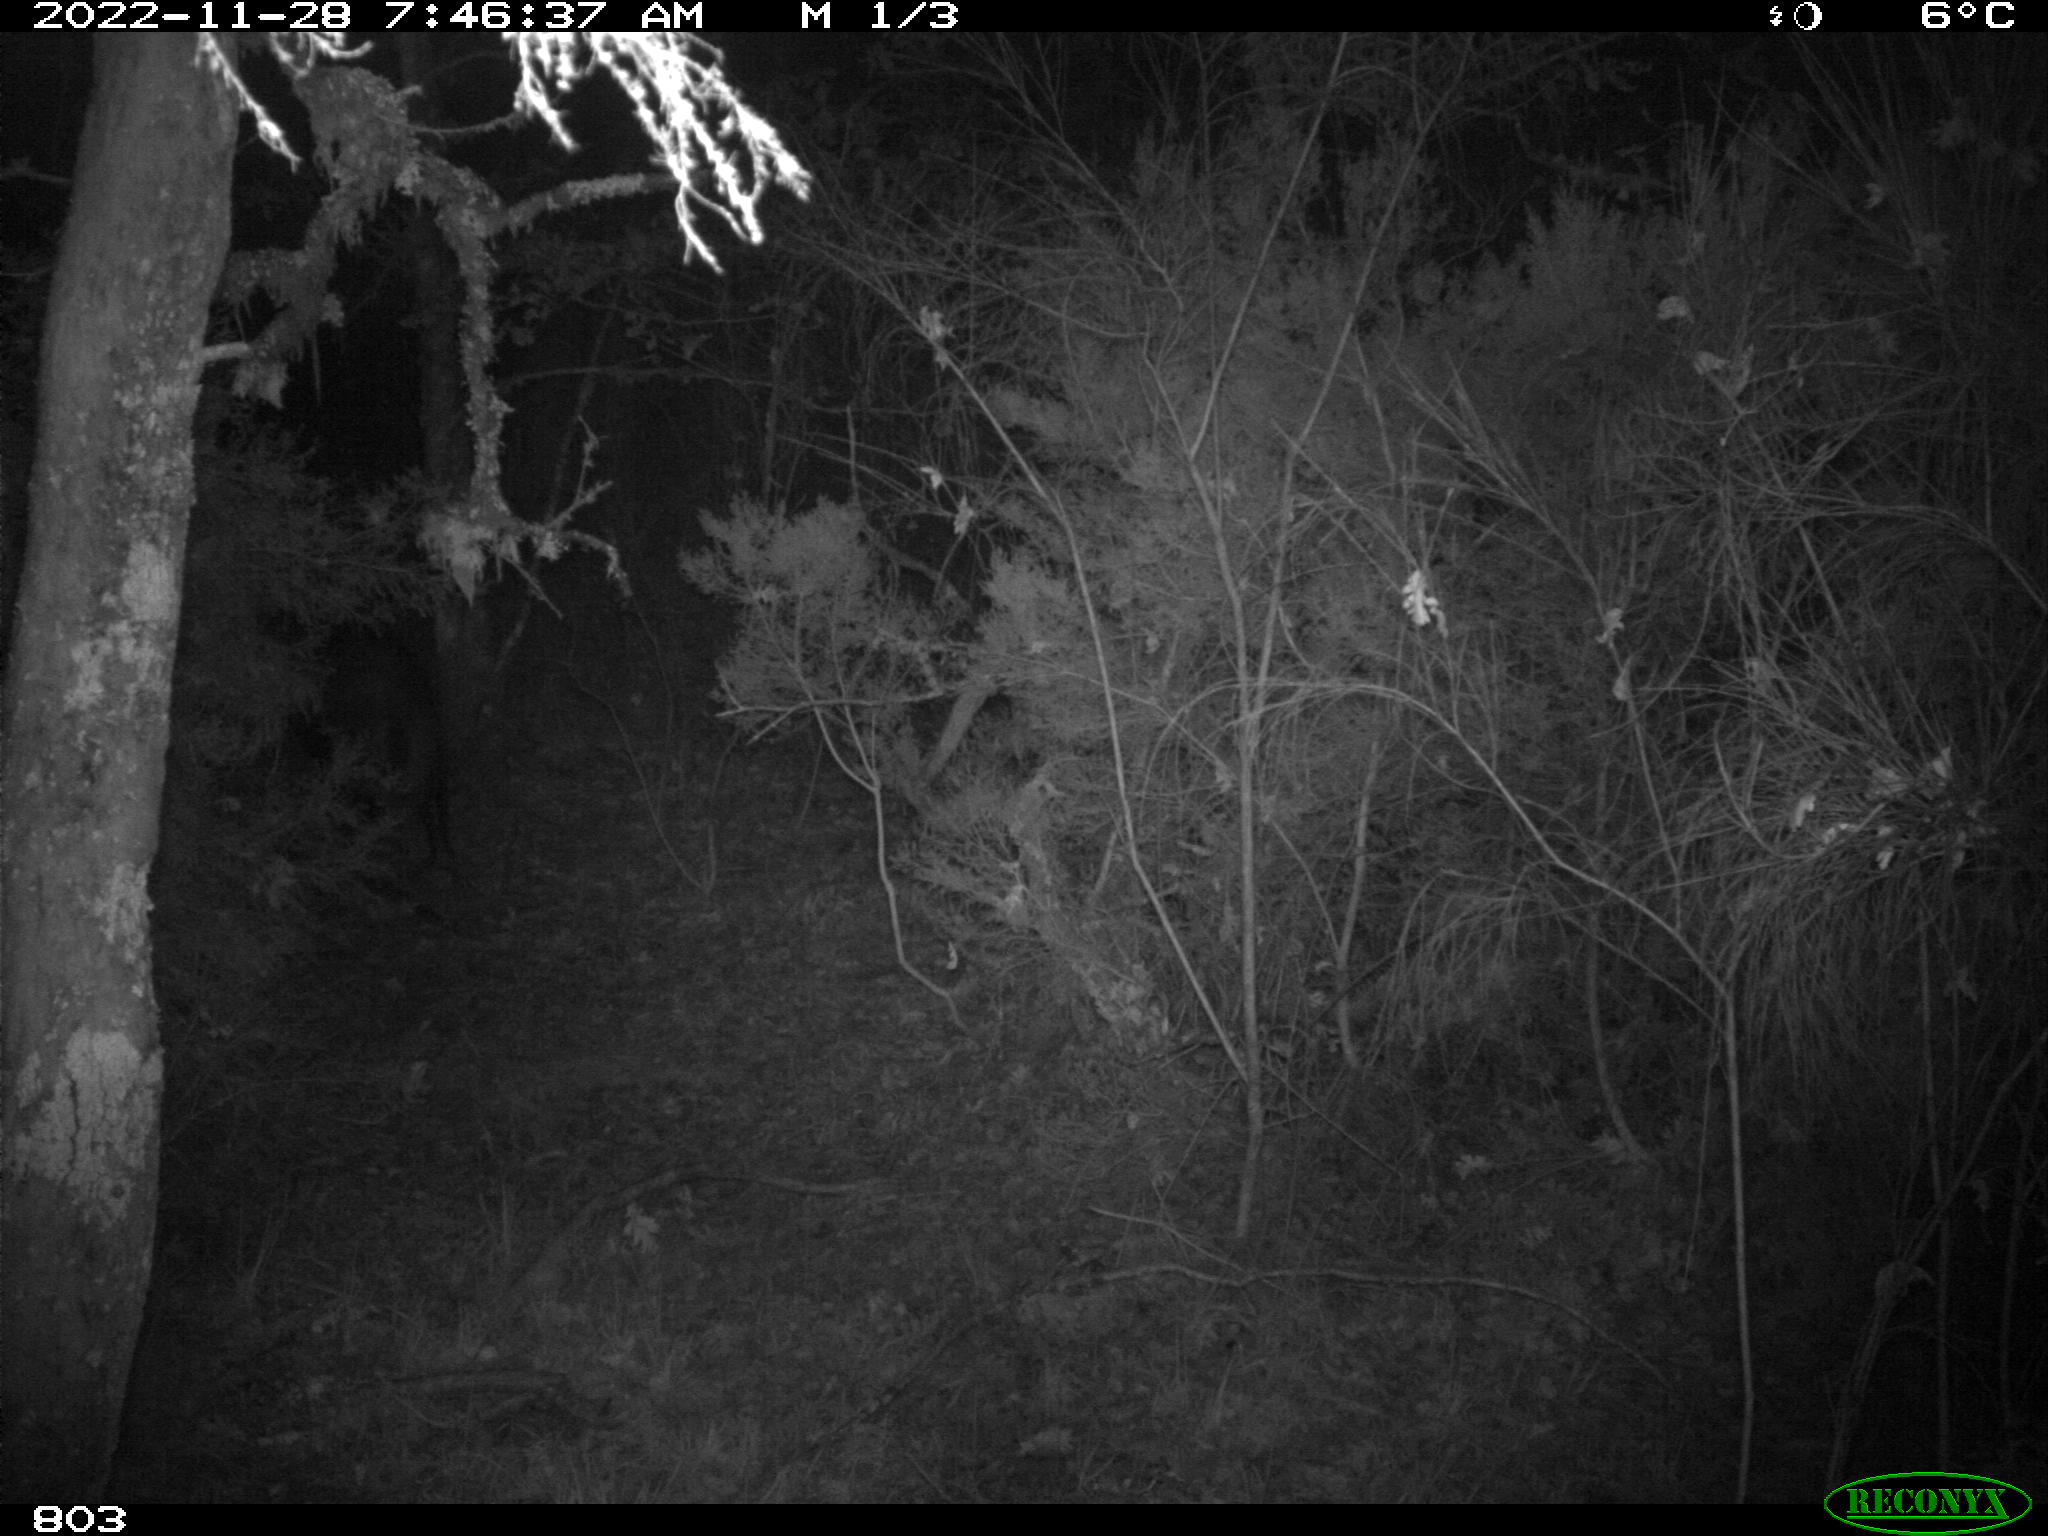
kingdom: Animalia
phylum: Chordata
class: Mammalia
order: Artiodactyla
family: Suidae
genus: Sus
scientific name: Sus scrofa
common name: Wild boar
